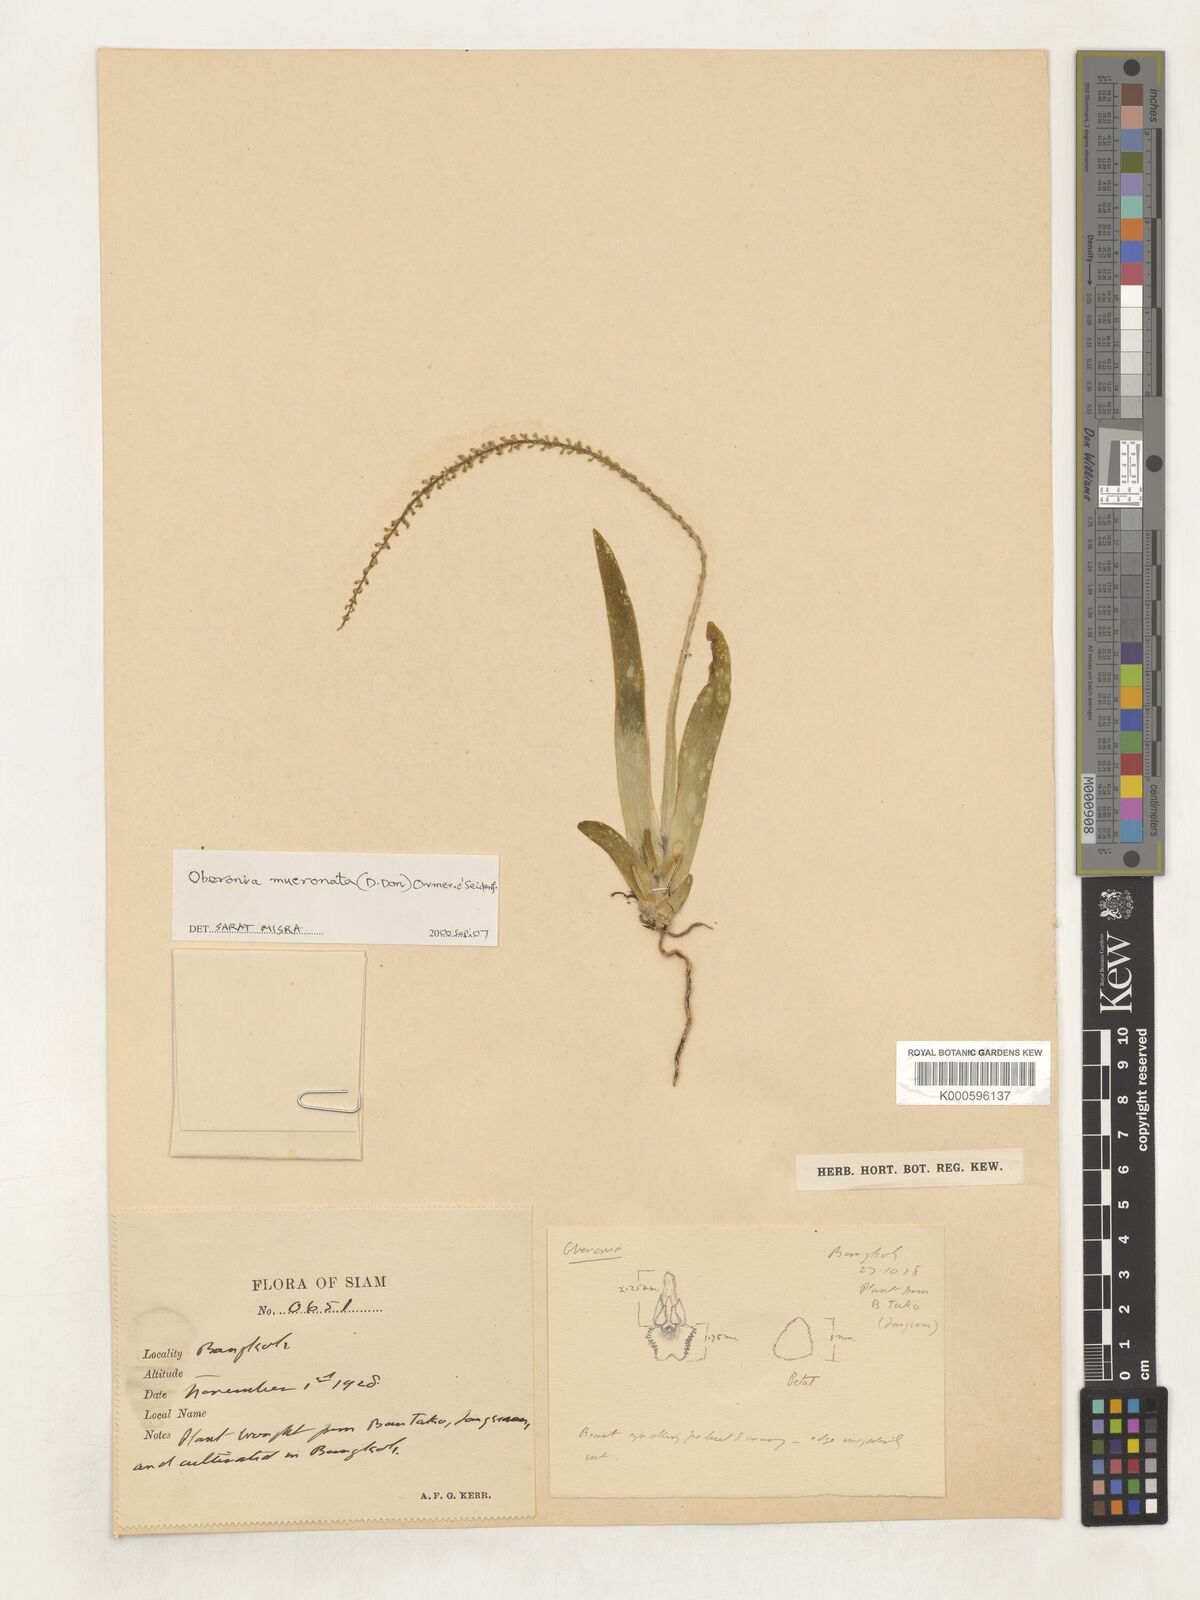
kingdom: Plantae
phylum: Tracheophyta
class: Liliopsida
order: Asparagales
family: Orchidaceae
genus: Oberonia
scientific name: Oberonia
